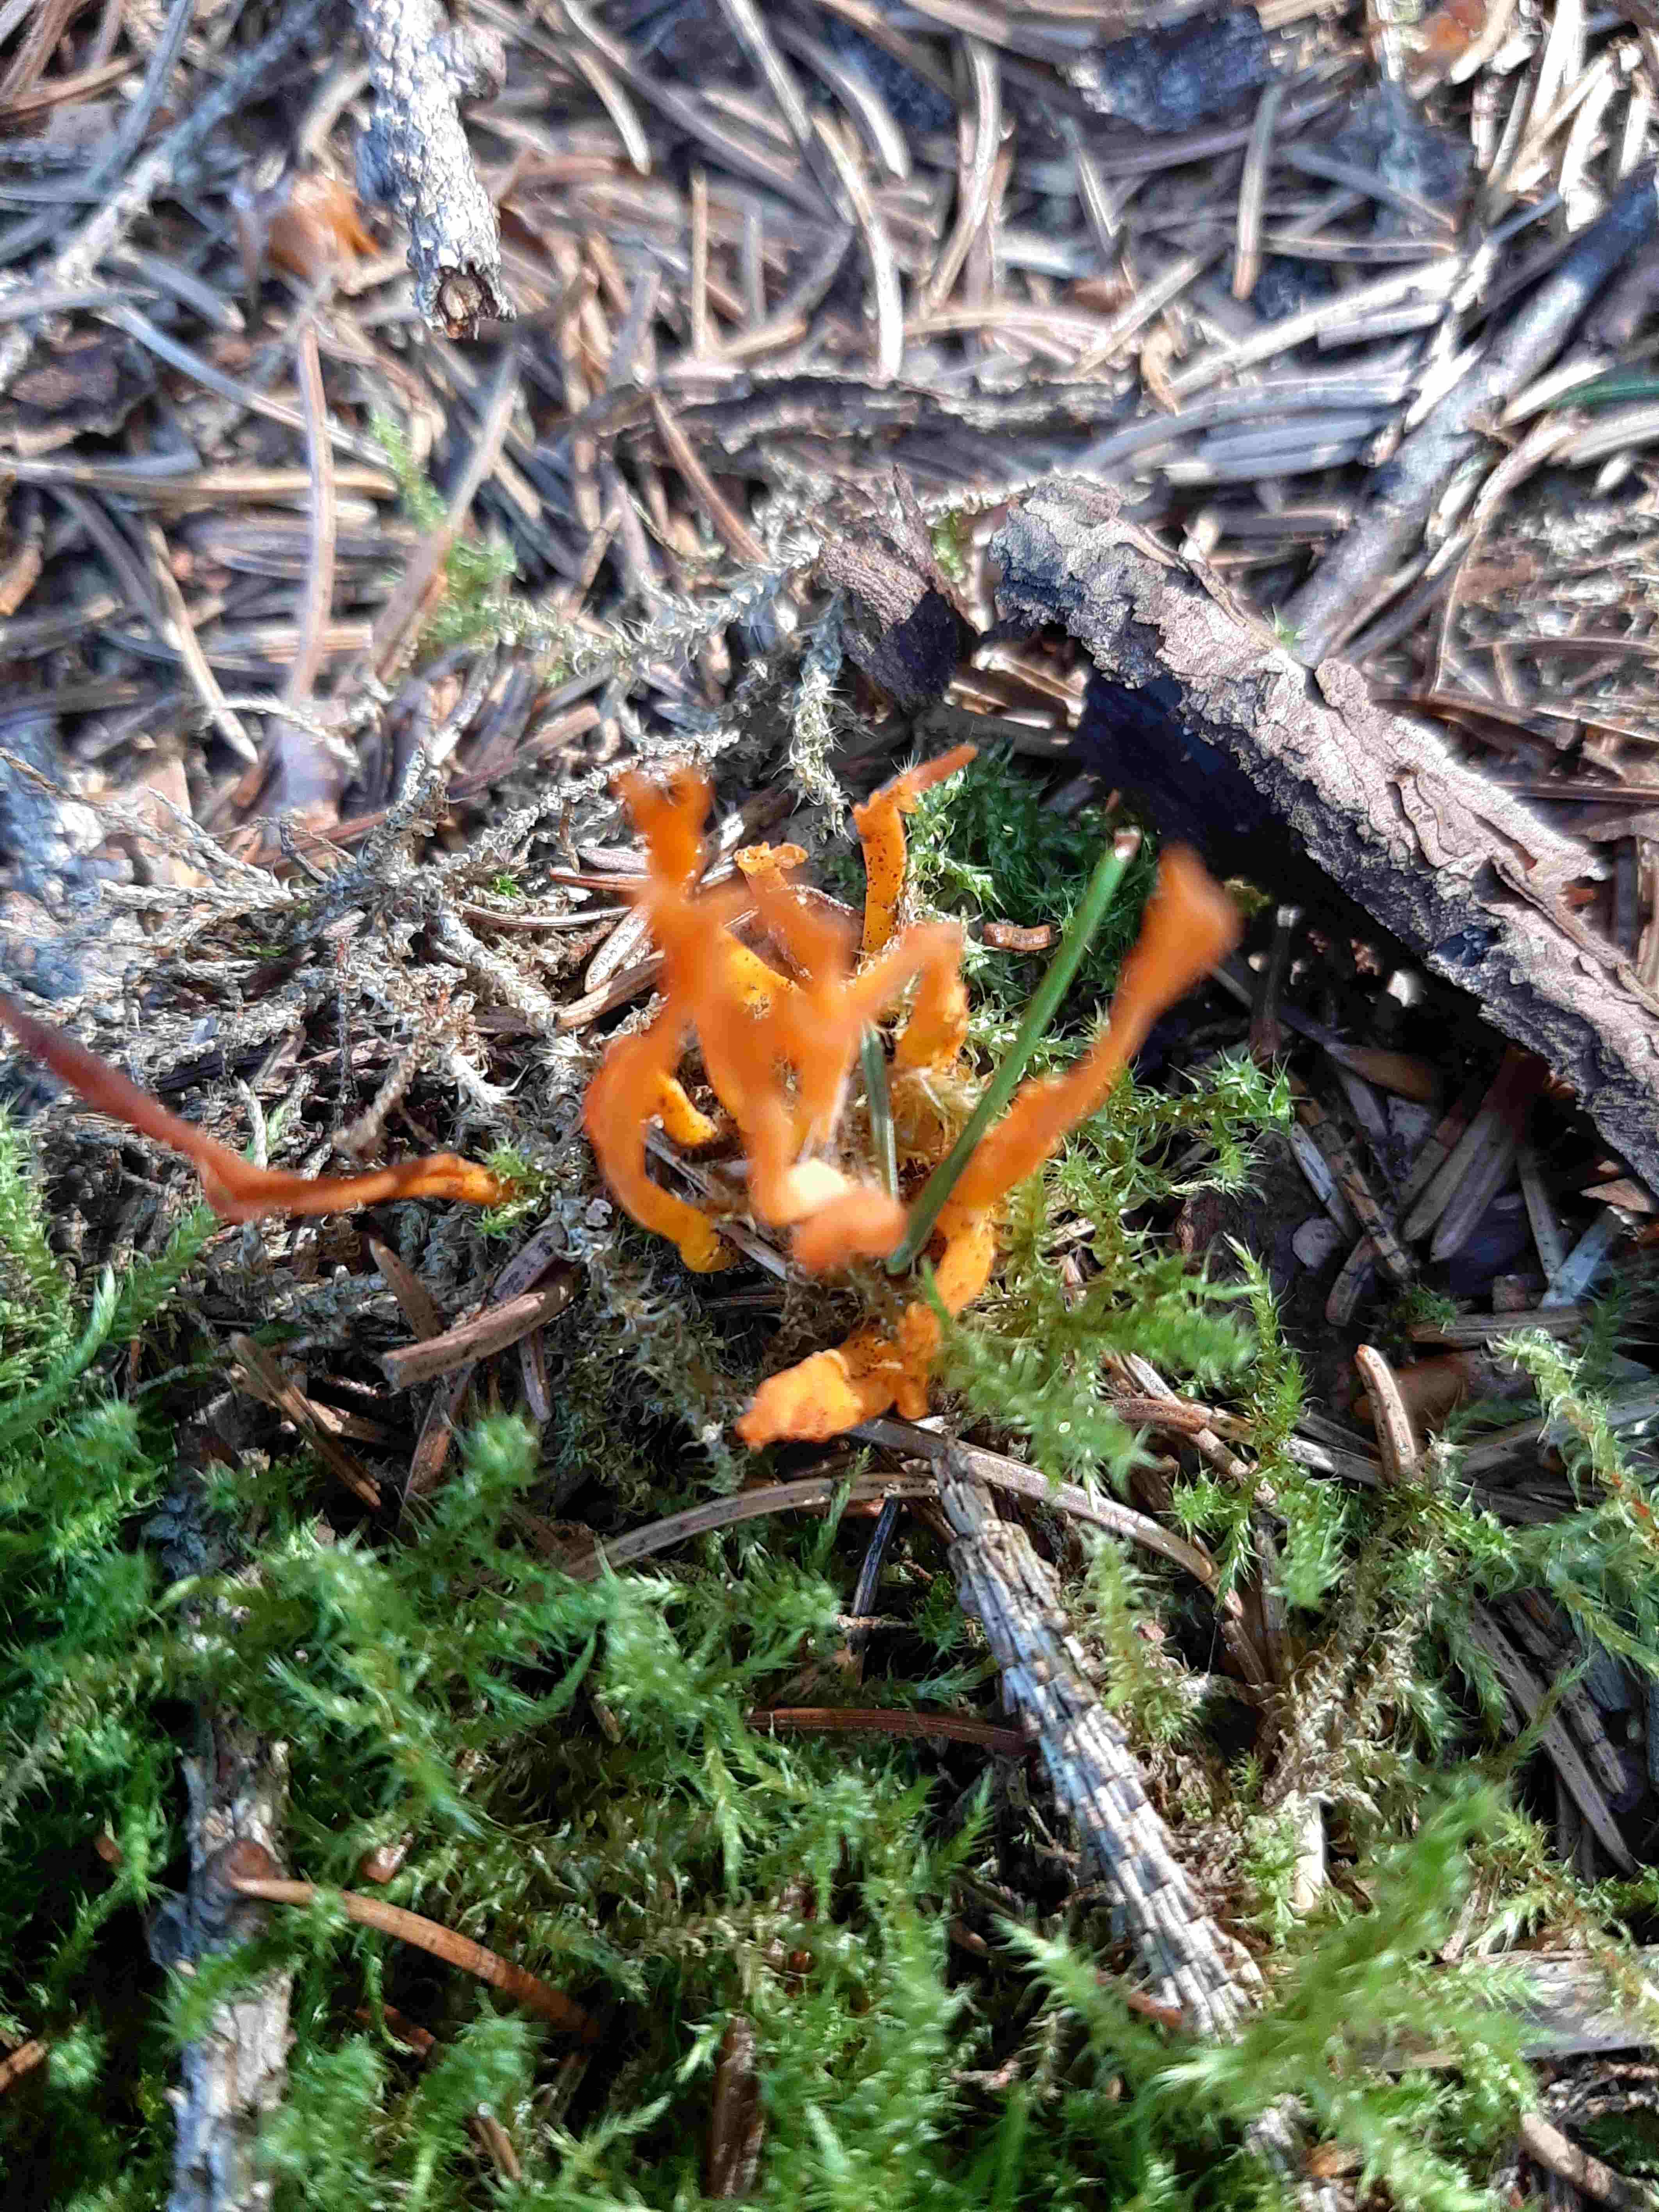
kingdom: Fungi
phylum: Basidiomycota
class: Dacrymycetes
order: Dacrymycetales
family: Dacrymycetaceae
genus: Calocera
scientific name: Calocera viscosa
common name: almindelig guldgaffel
